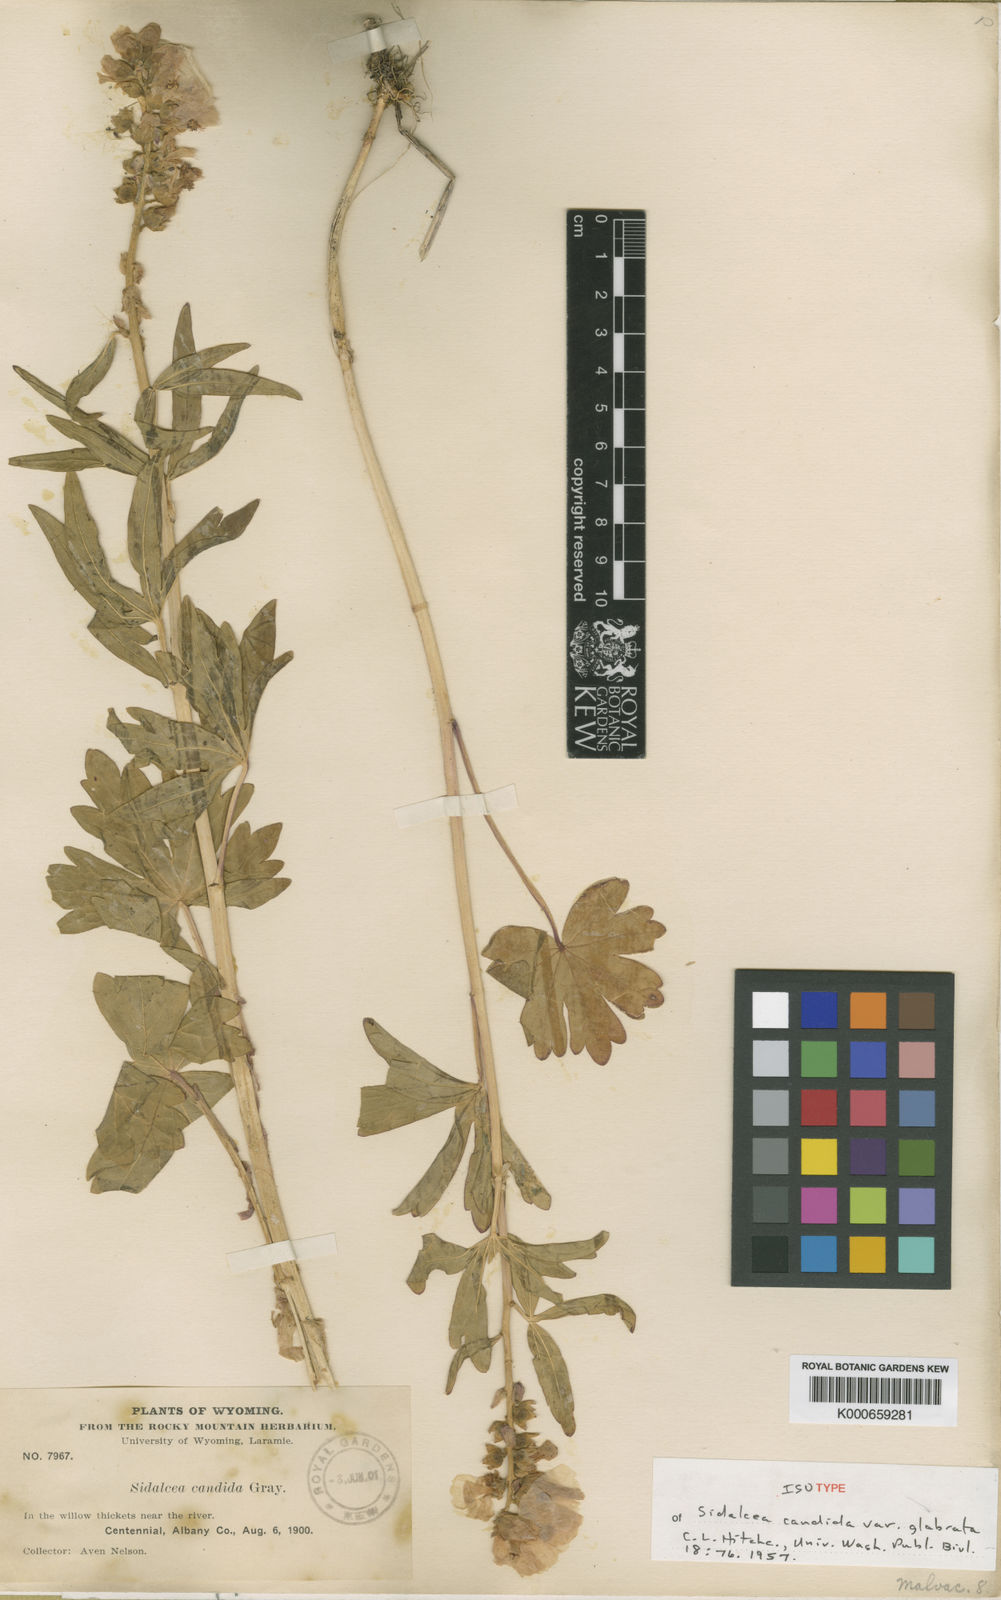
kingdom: Plantae
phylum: Tracheophyta
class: Magnoliopsida
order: Malvales
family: Malvaceae
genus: Sidalcea
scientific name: Sidalcea candida
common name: Prairie-mallow
